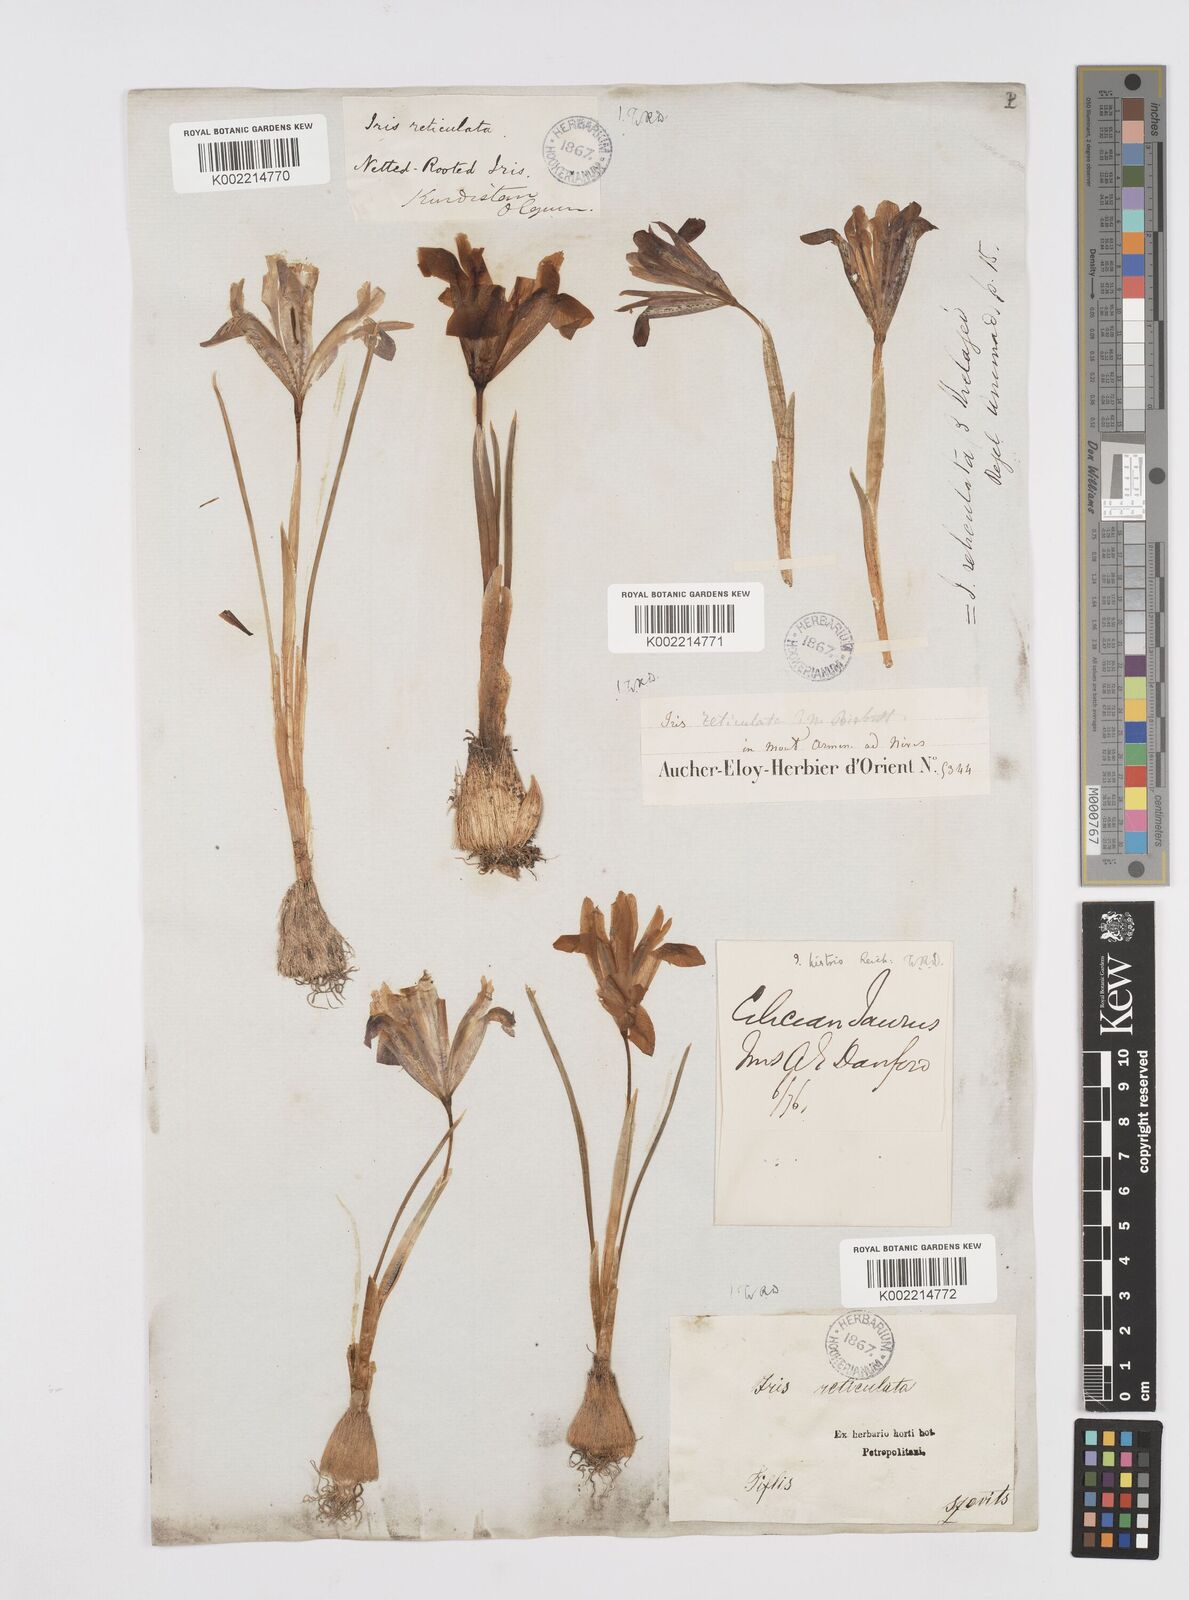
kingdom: Plantae
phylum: Tracheophyta
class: Liliopsida
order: Asparagales
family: Iridaceae
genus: Iris
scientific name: Iris reticulata
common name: Netted iris
